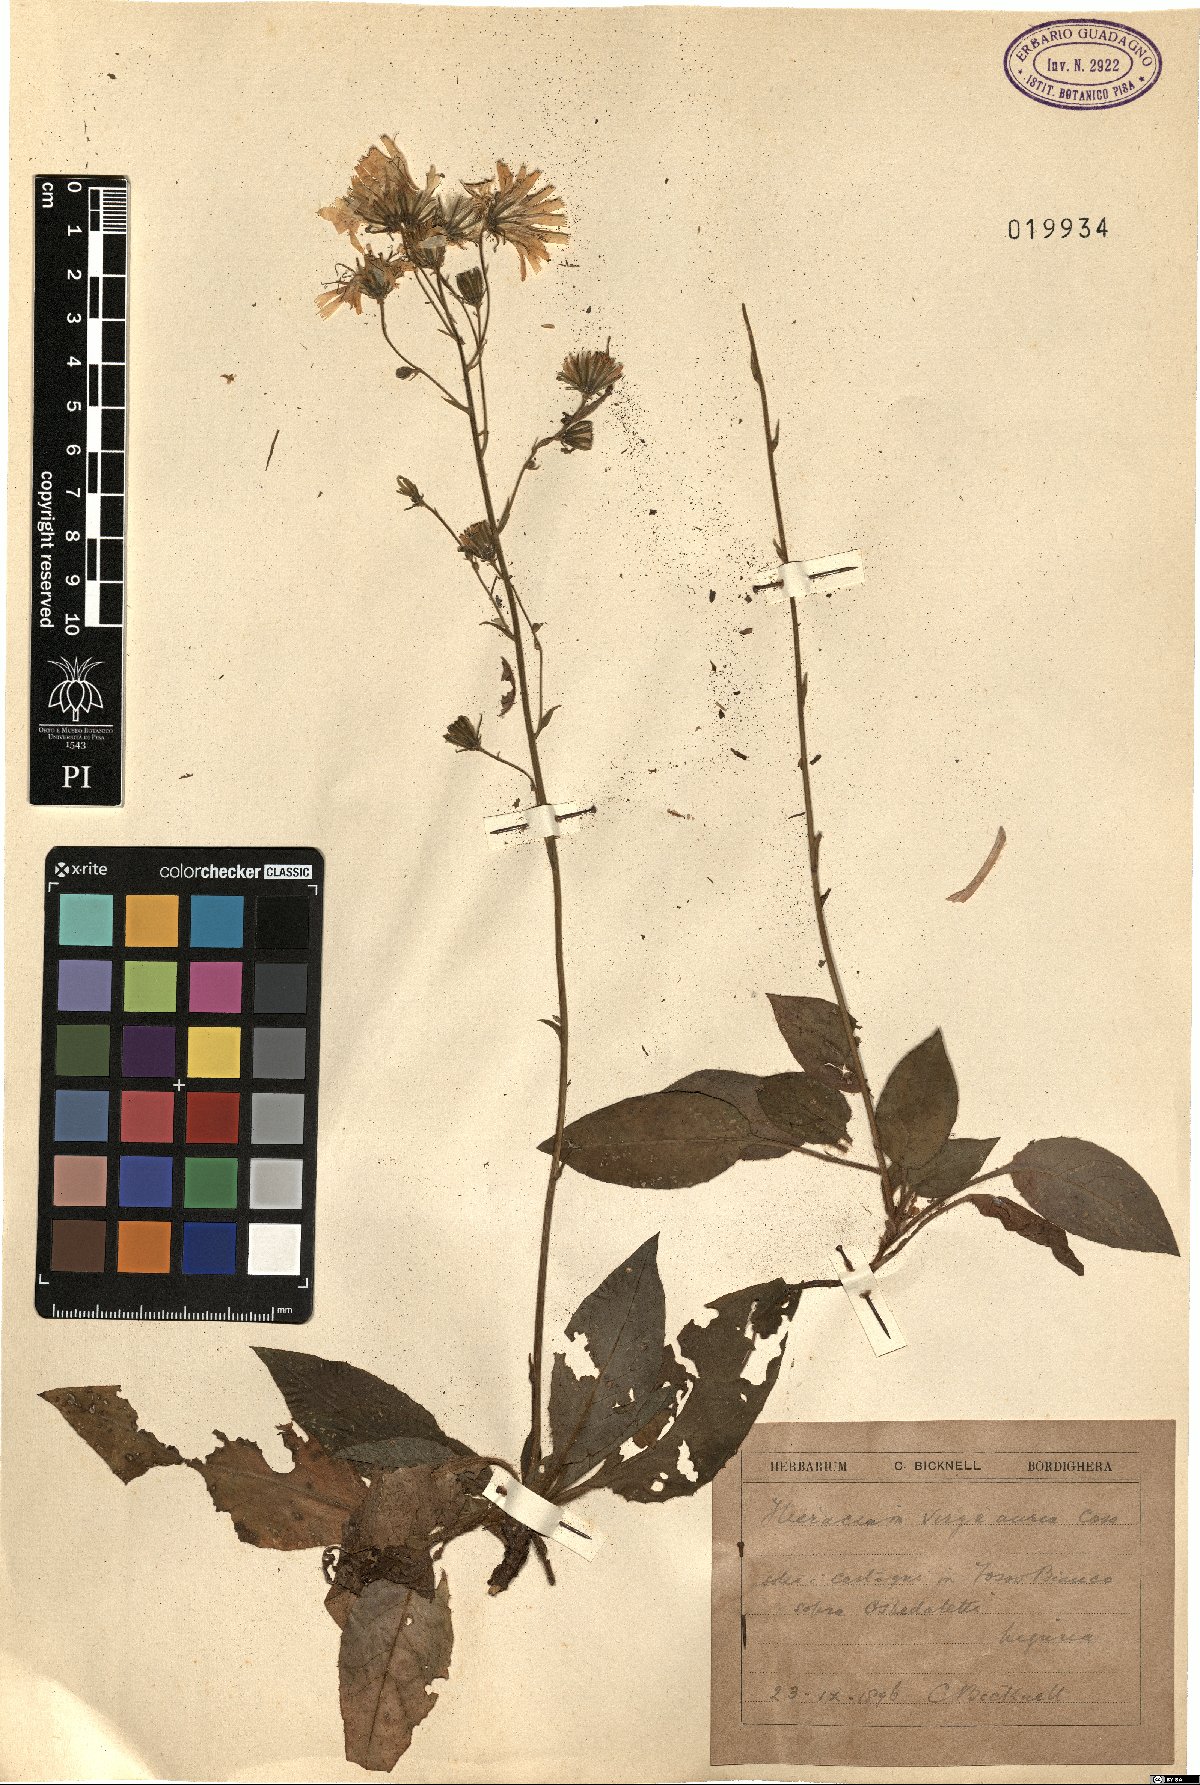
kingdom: Plantae
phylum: Tracheophyta
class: Magnoliopsida
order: Asterales
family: Asteraceae
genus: Hieracium
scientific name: Hieracium racemosum
